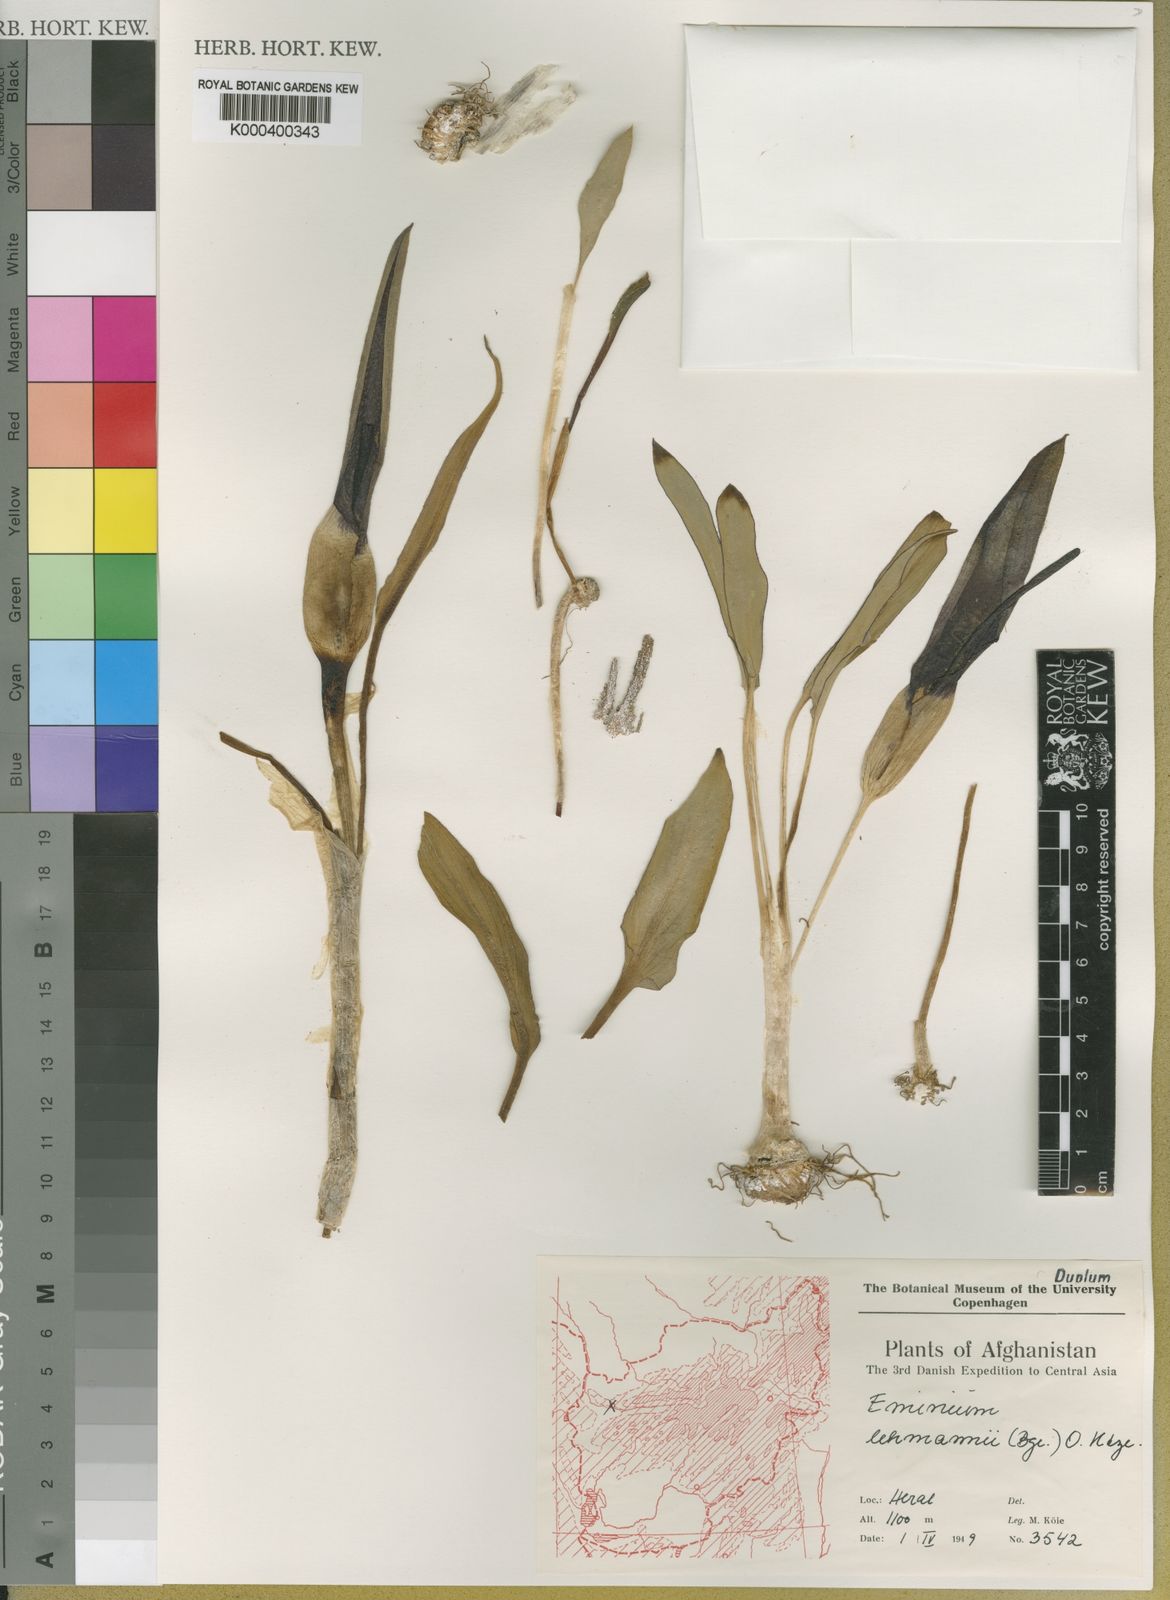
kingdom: Plantae
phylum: Tracheophyta
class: Liliopsida
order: Alismatales
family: Araceae
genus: Eminium
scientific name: Eminium lehmannii
